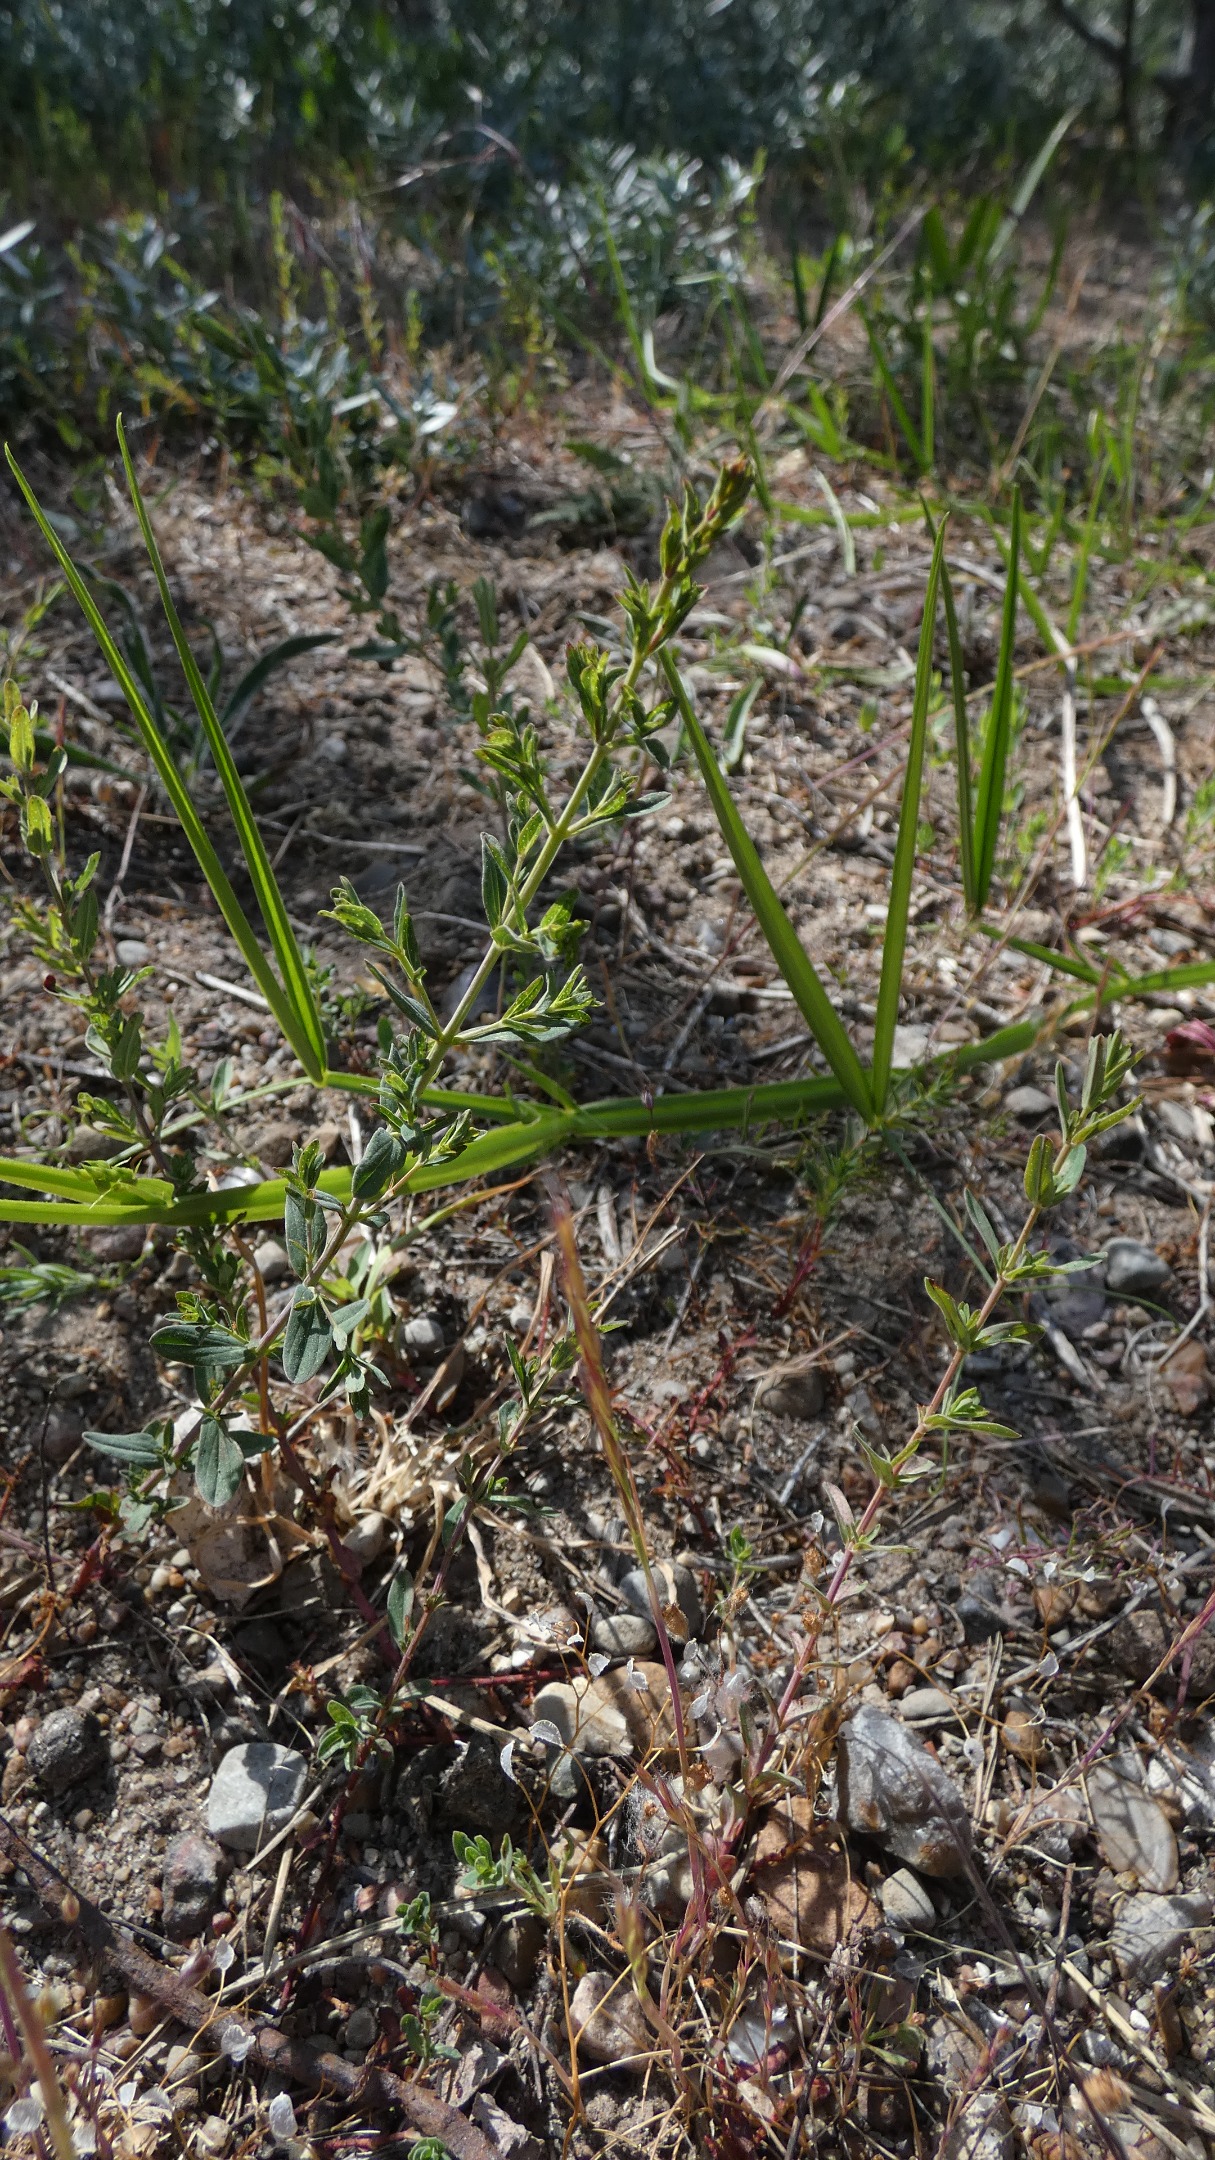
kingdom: Plantae
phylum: Tracheophyta
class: Magnoliopsida
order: Malpighiales
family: Hypericaceae
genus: Hypericum
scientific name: Hypericum perforatum
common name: Prikbladet perikon
